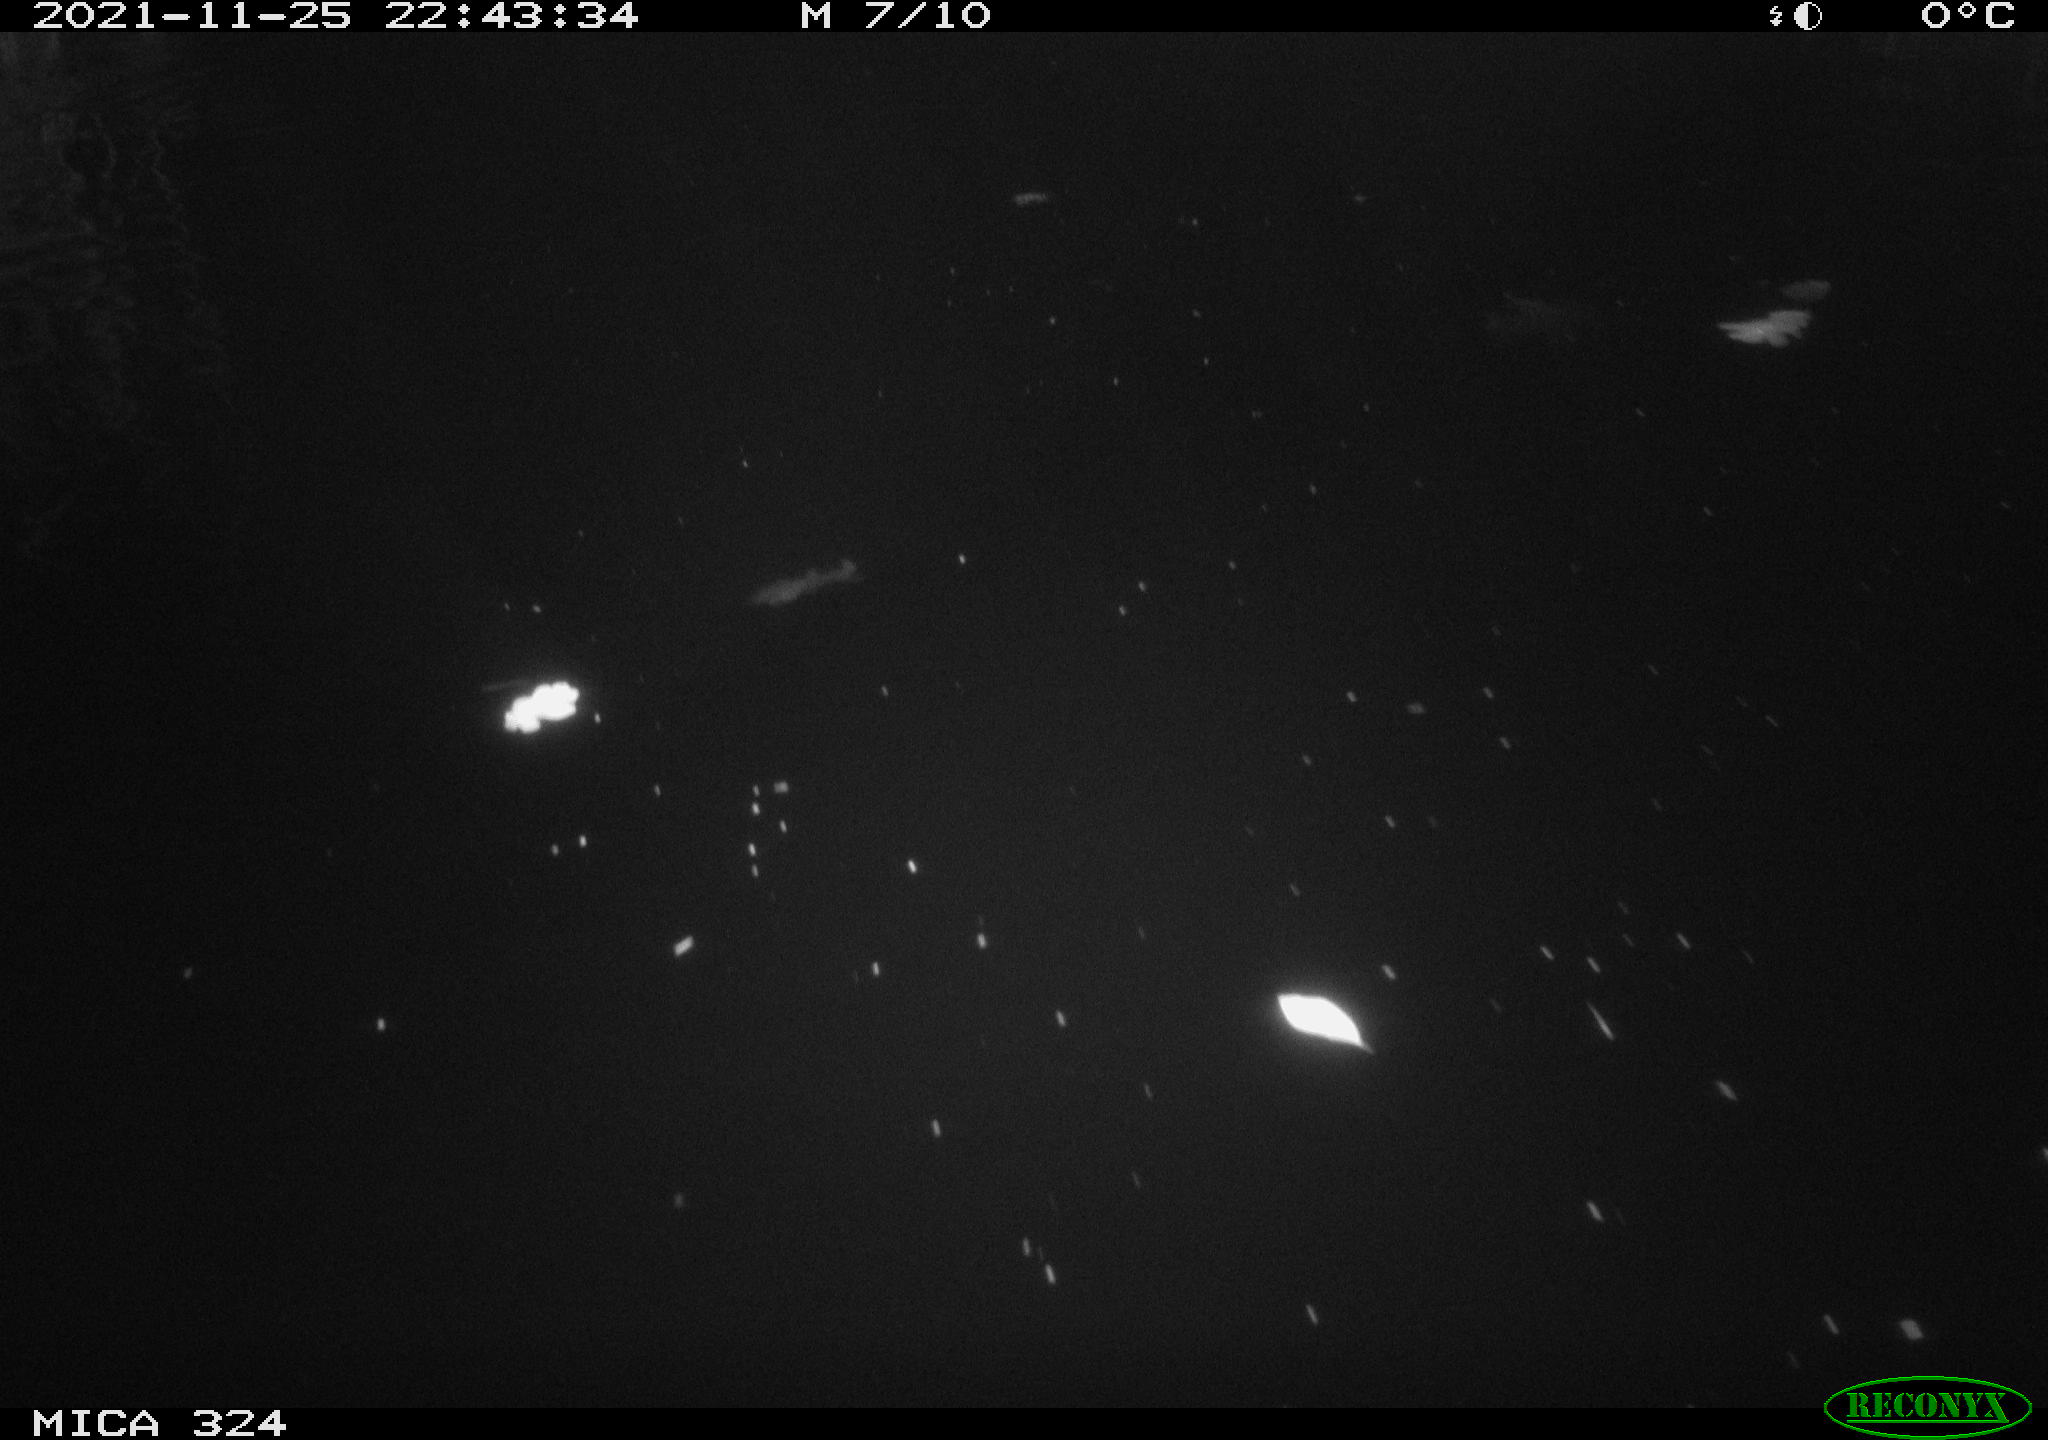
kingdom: Animalia
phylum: Chordata
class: Mammalia
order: Rodentia
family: Cricetidae
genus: Ondatra
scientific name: Ondatra zibethicus
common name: Muskrat
